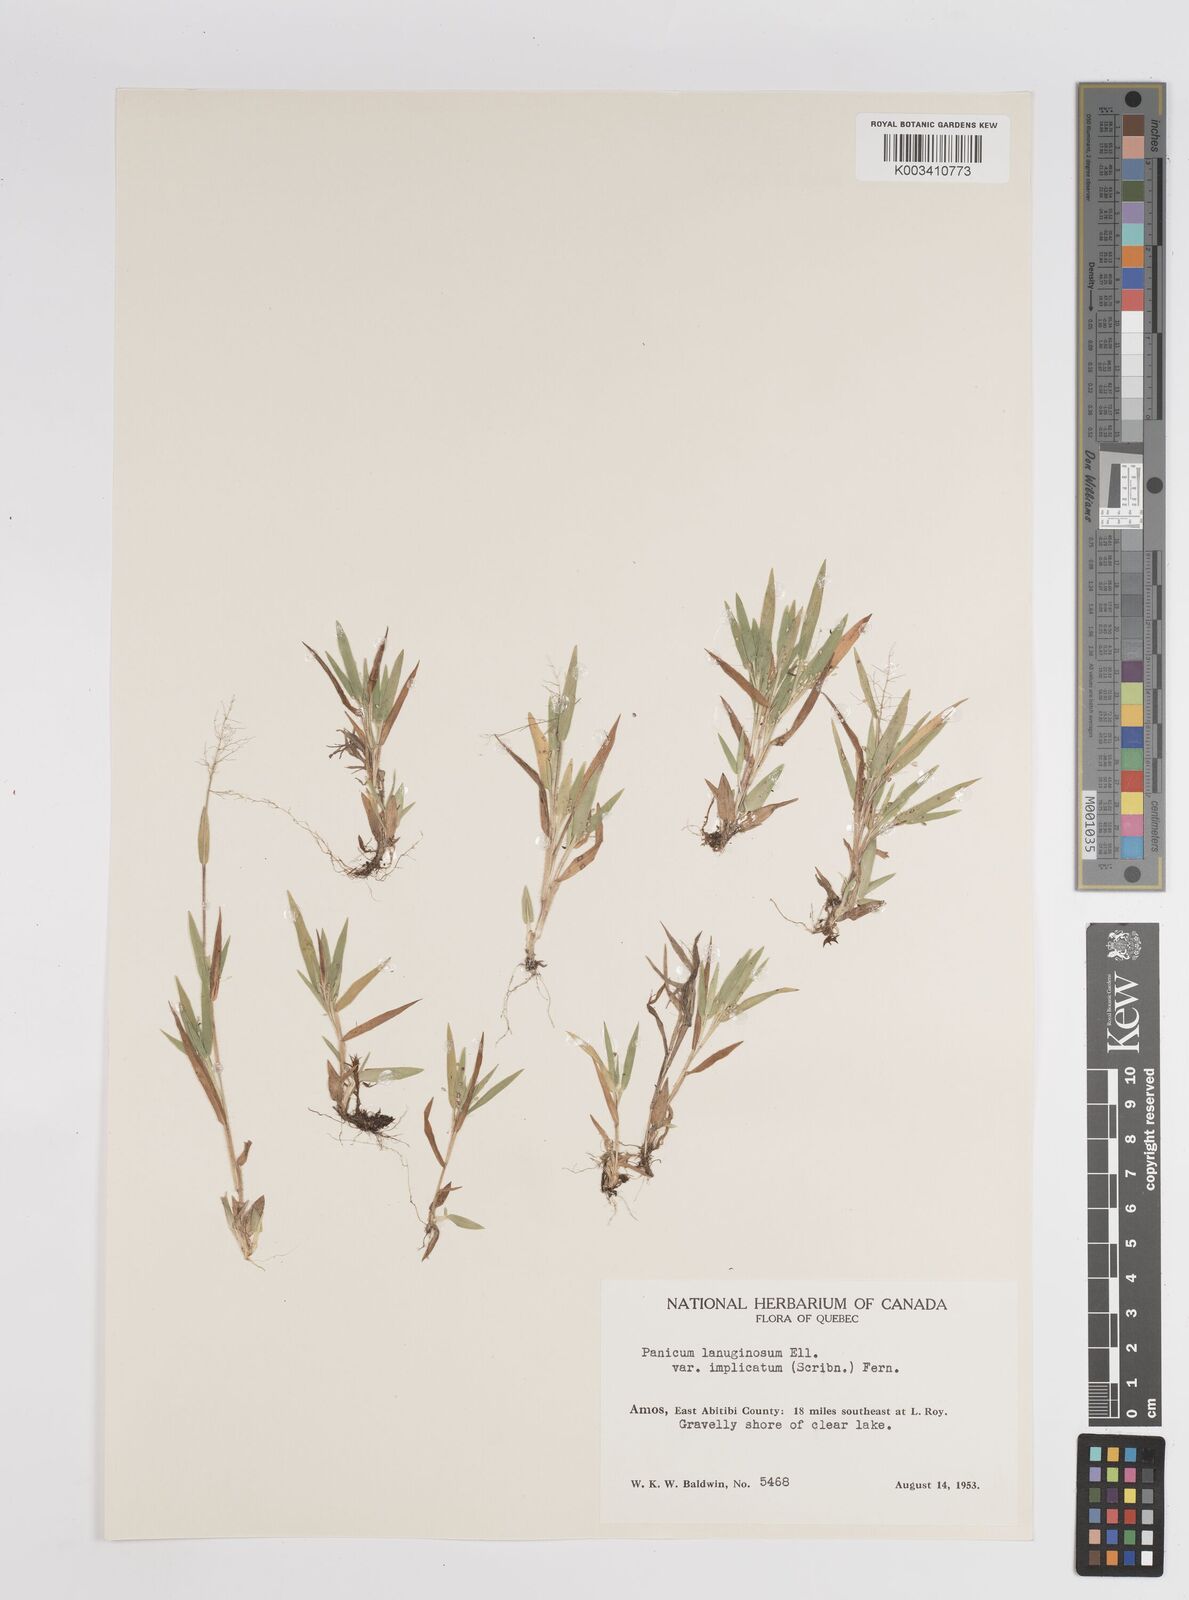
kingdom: Plantae
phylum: Tracheophyta
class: Liliopsida
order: Poales
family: Poaceae
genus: Dichanthelium
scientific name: Dichanthelium implicatum
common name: Slender-stemmed panicgrass
